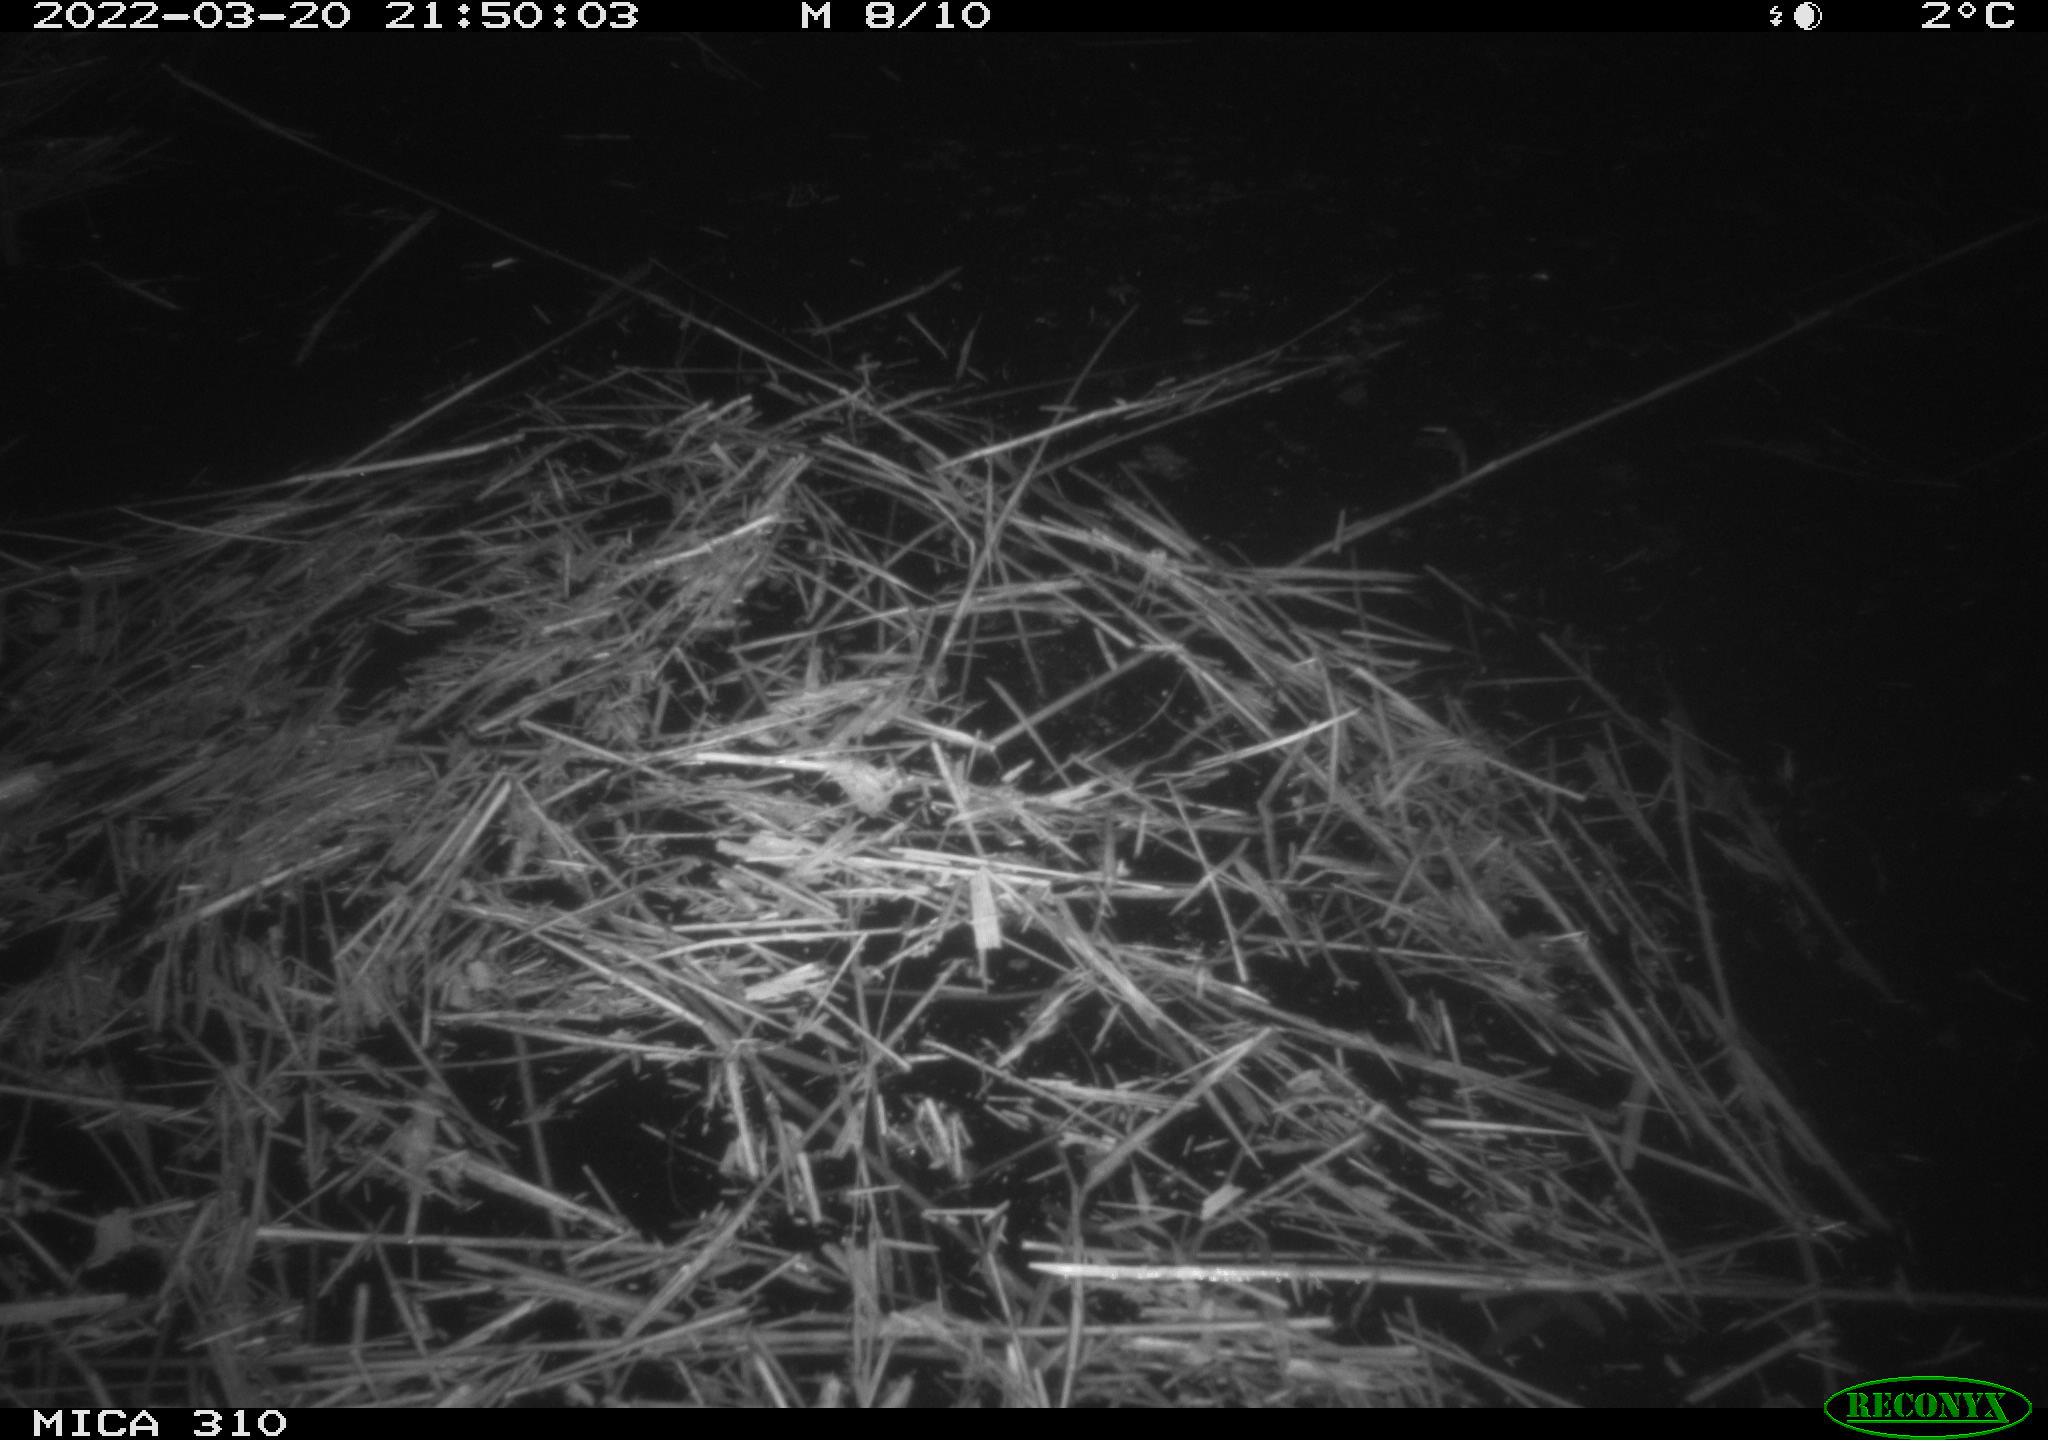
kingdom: Animalia
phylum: Chordata
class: Aves
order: Anseriformes
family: Anatidae
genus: Anas
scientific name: Anas platyrhynchos
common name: Mallard
